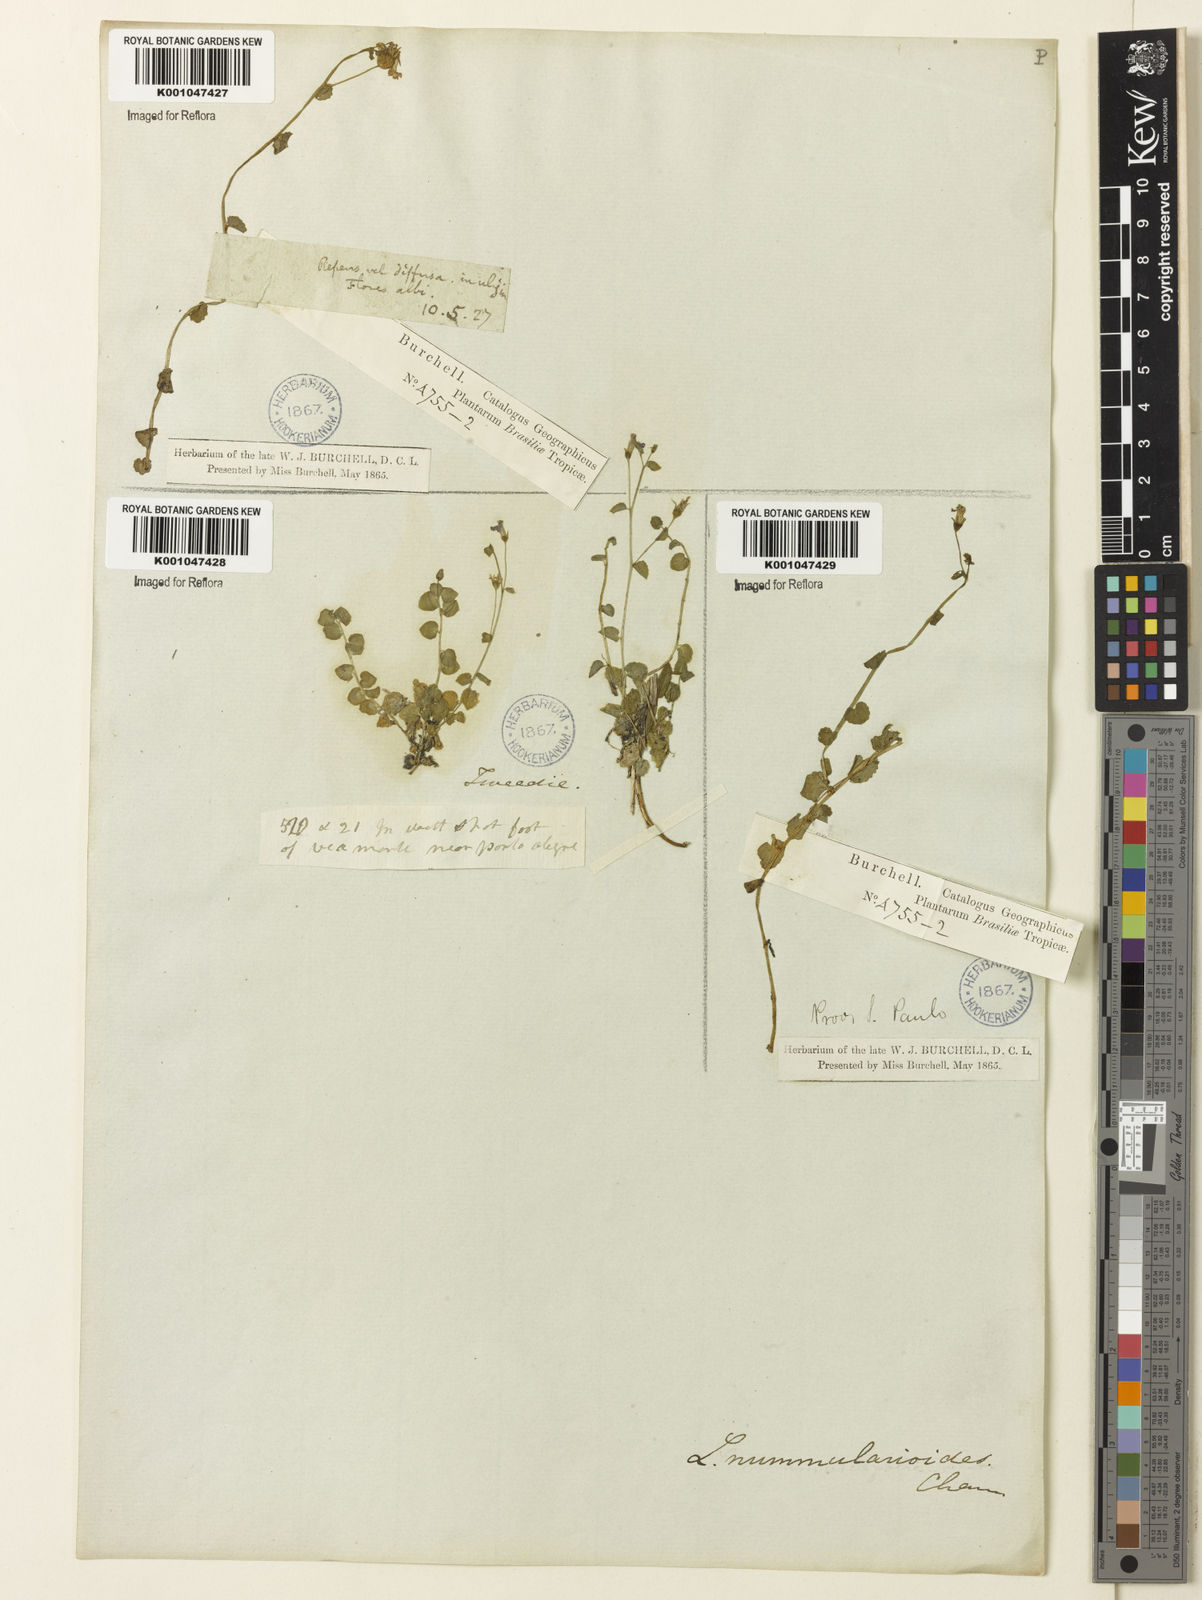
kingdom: Plantae
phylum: Tracheophyta
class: Magnoliopsida
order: Asterales
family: Campanulaceae
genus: Lobelia
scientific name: Lobelia nummularioides
